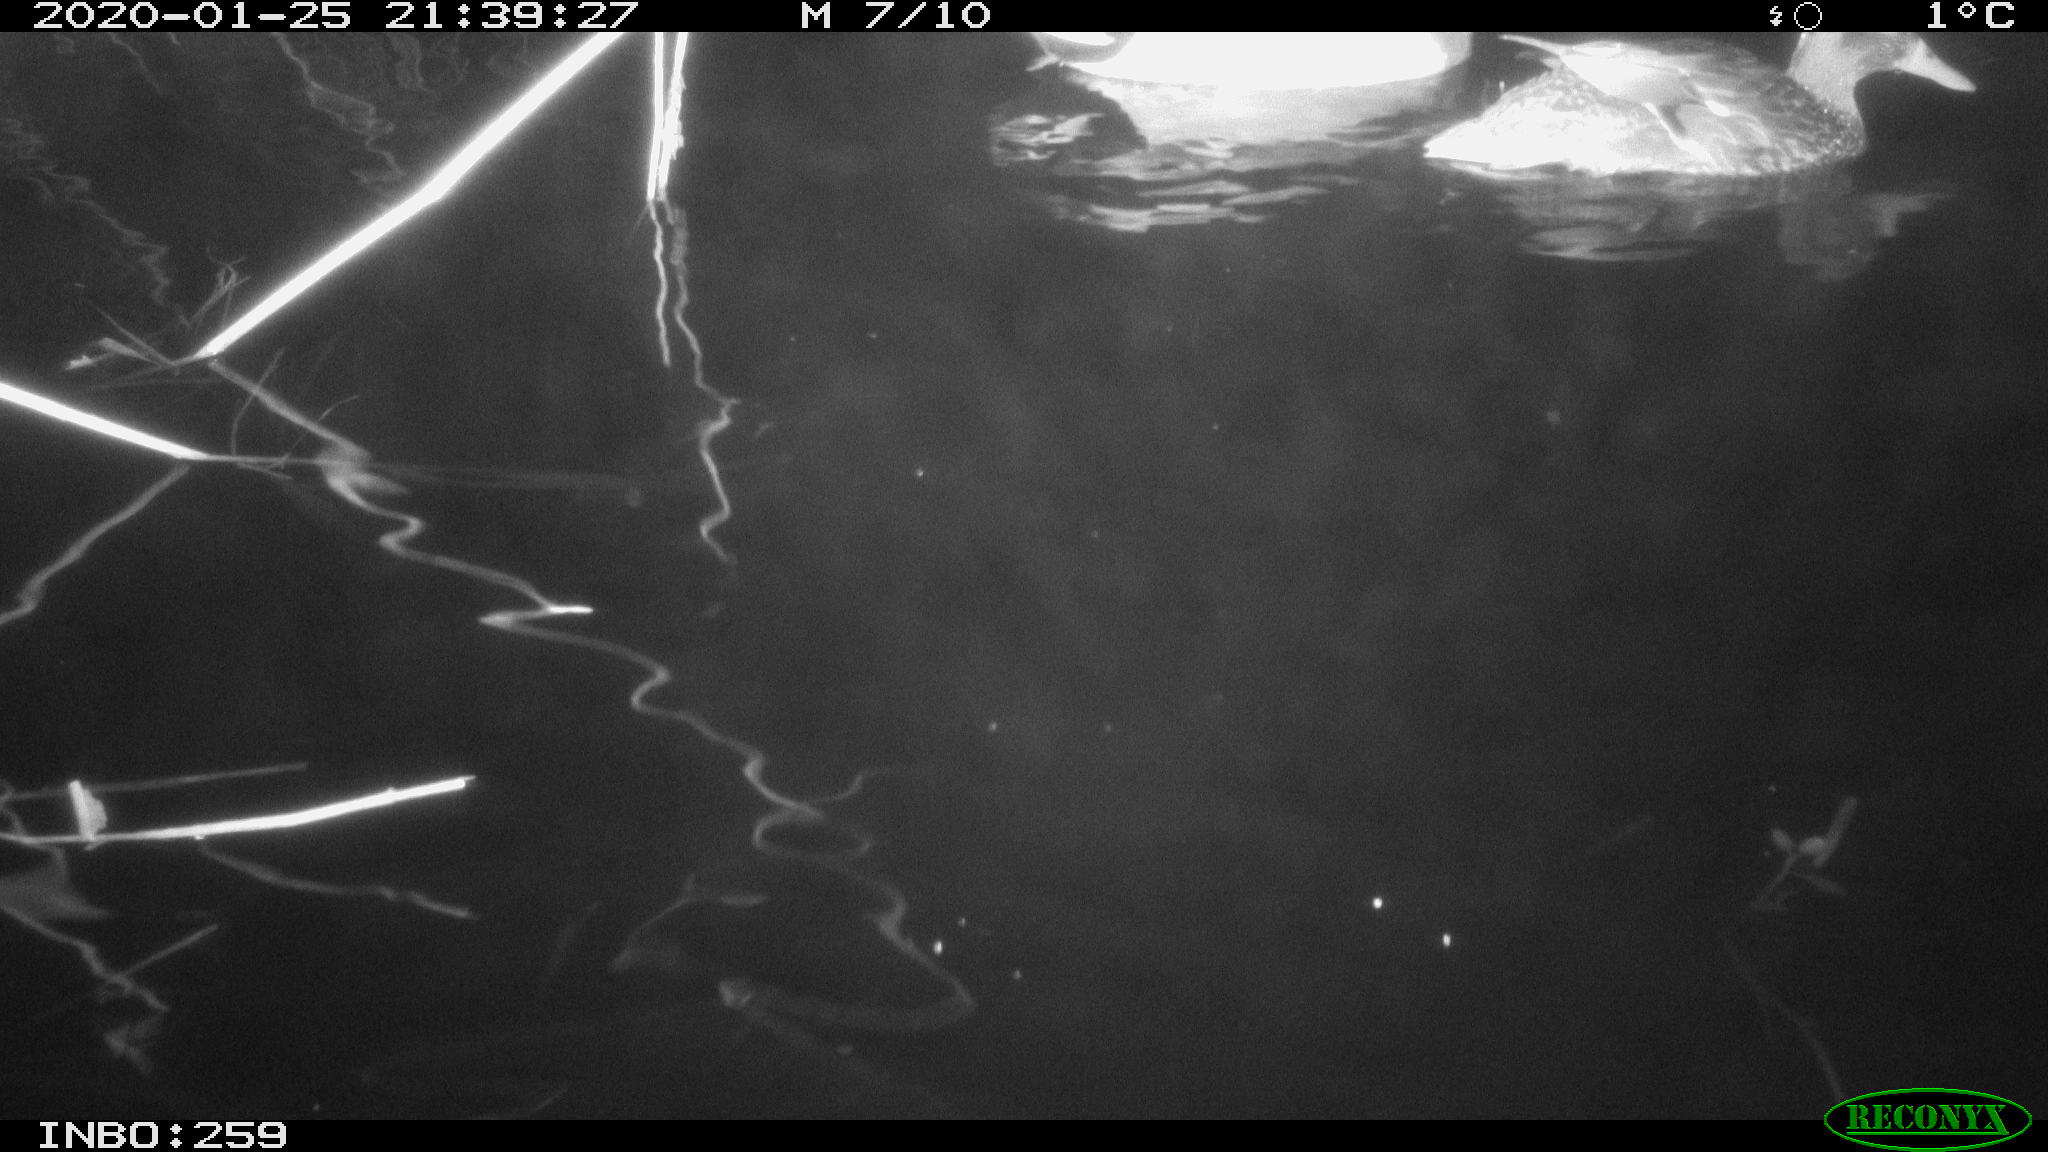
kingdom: Animalia
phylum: Chordata
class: Aves
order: Anseriformes
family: Anatidae
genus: Anas
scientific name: Anas platyrhynchos
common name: Mallard
